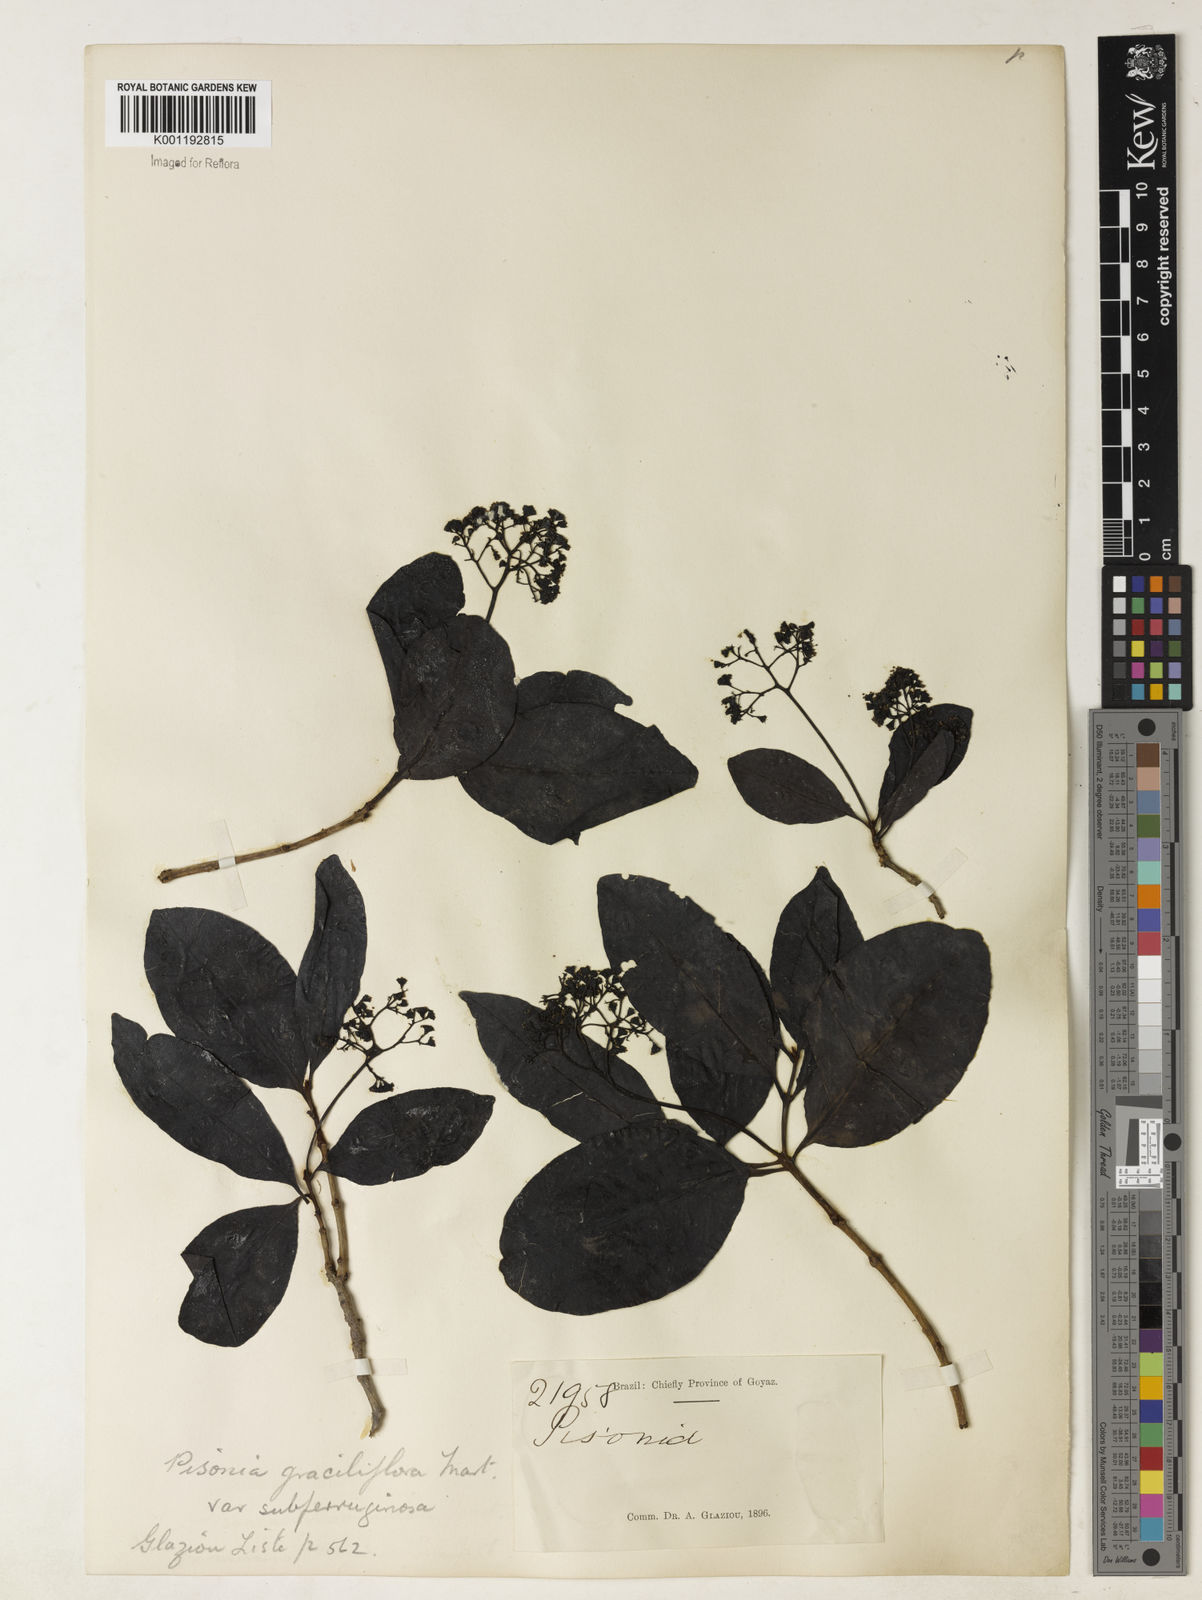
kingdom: Plantae
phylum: Tracheophyta
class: Magnoliopsida
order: Caryophyllales
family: Nyctaginaceae
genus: Guapira
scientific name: Guapira graciliflora
